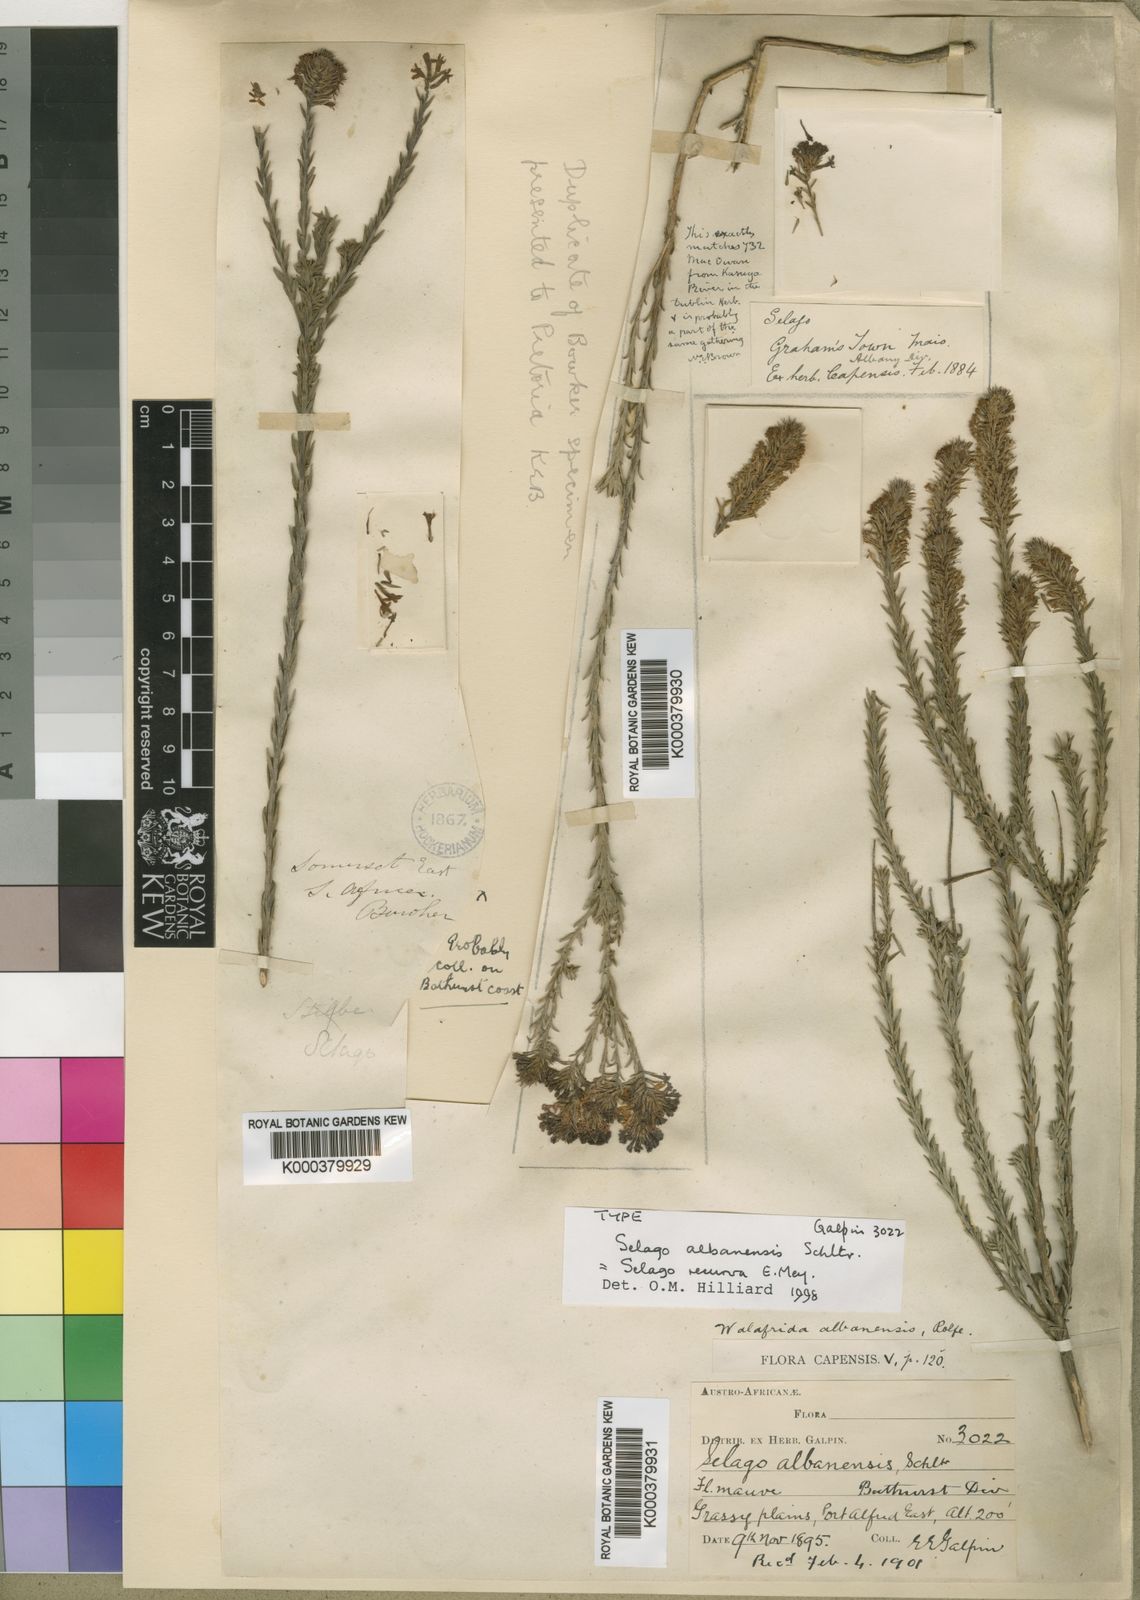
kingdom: Plantae
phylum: Tracheophyta
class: Magnoliopsida
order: Lamiales
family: Scrophulariaceae
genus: Selago
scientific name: Selago recurva
